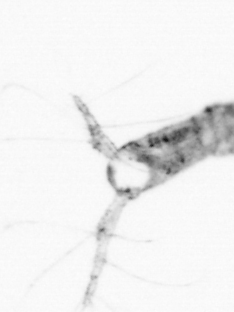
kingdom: Animalia
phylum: Arthropoda
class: Copepoda
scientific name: Copepoda
